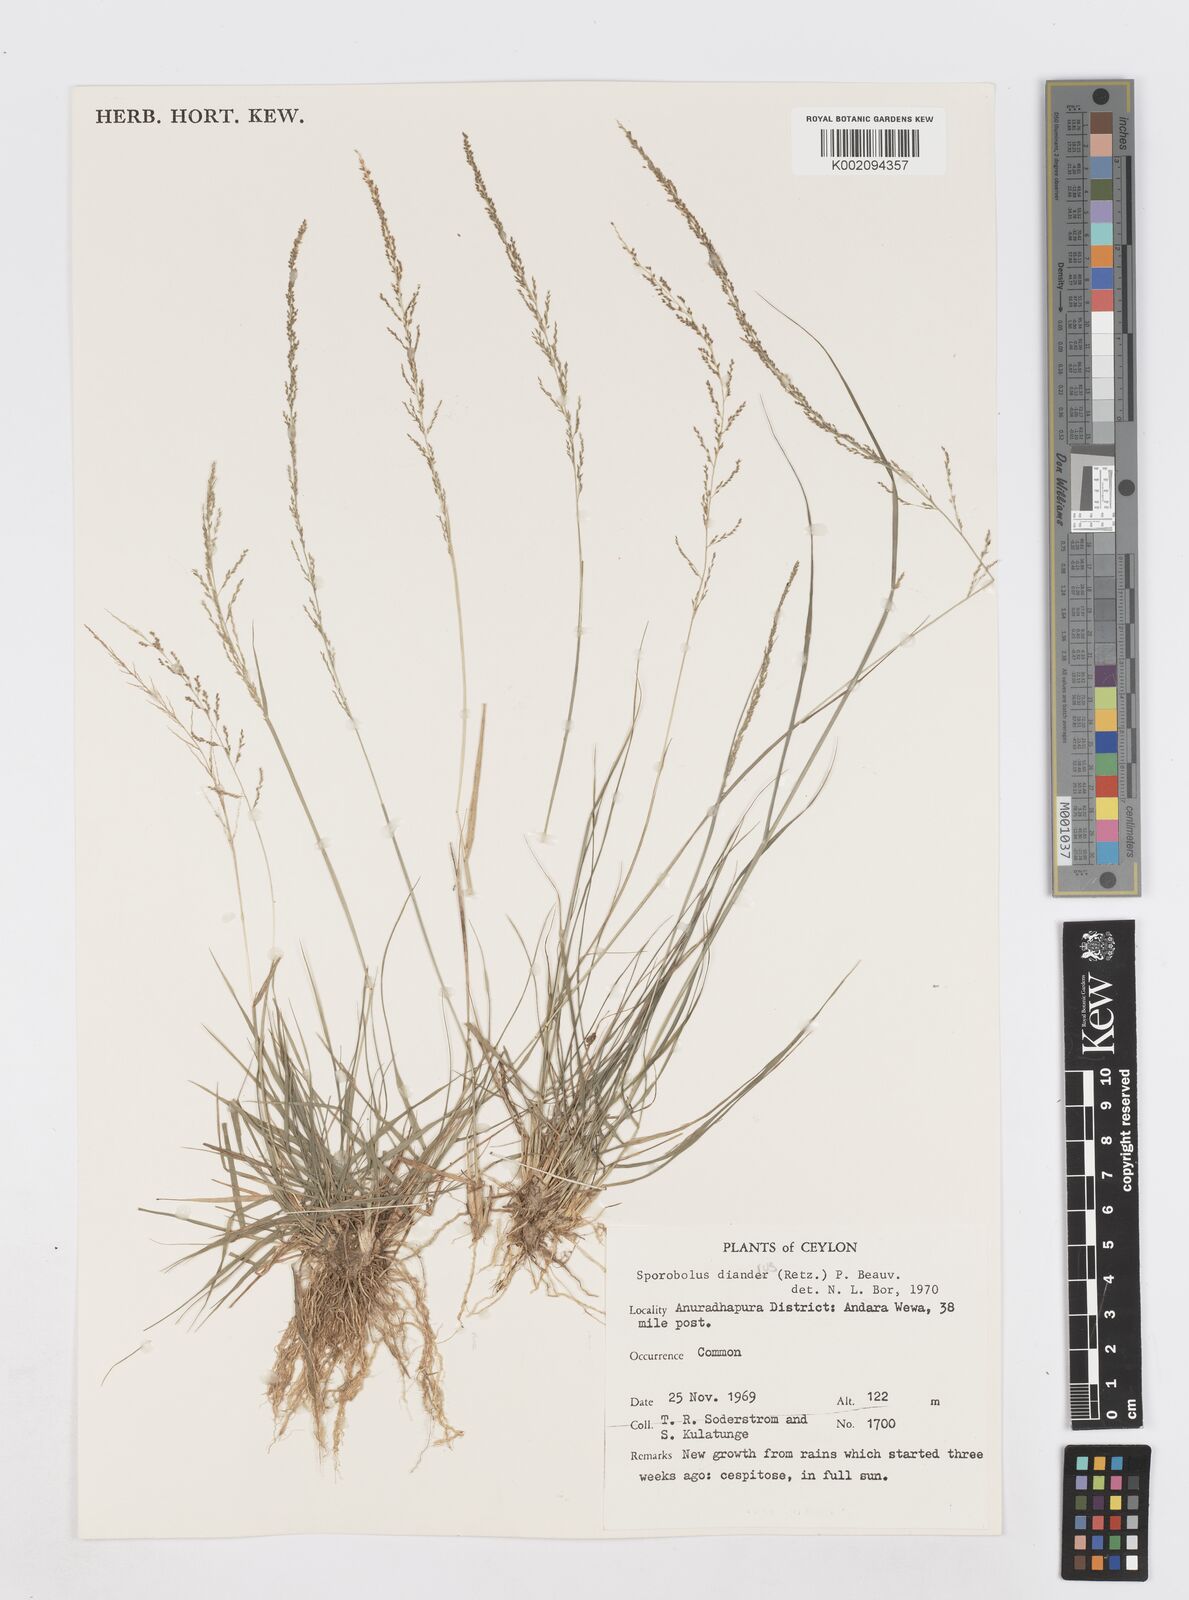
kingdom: Plantae
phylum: Tracheophyta
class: Liliopsida
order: Poales
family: Poaceae
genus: Sporobolus
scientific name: Sporobolus diandrus
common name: Tussock dropseed
